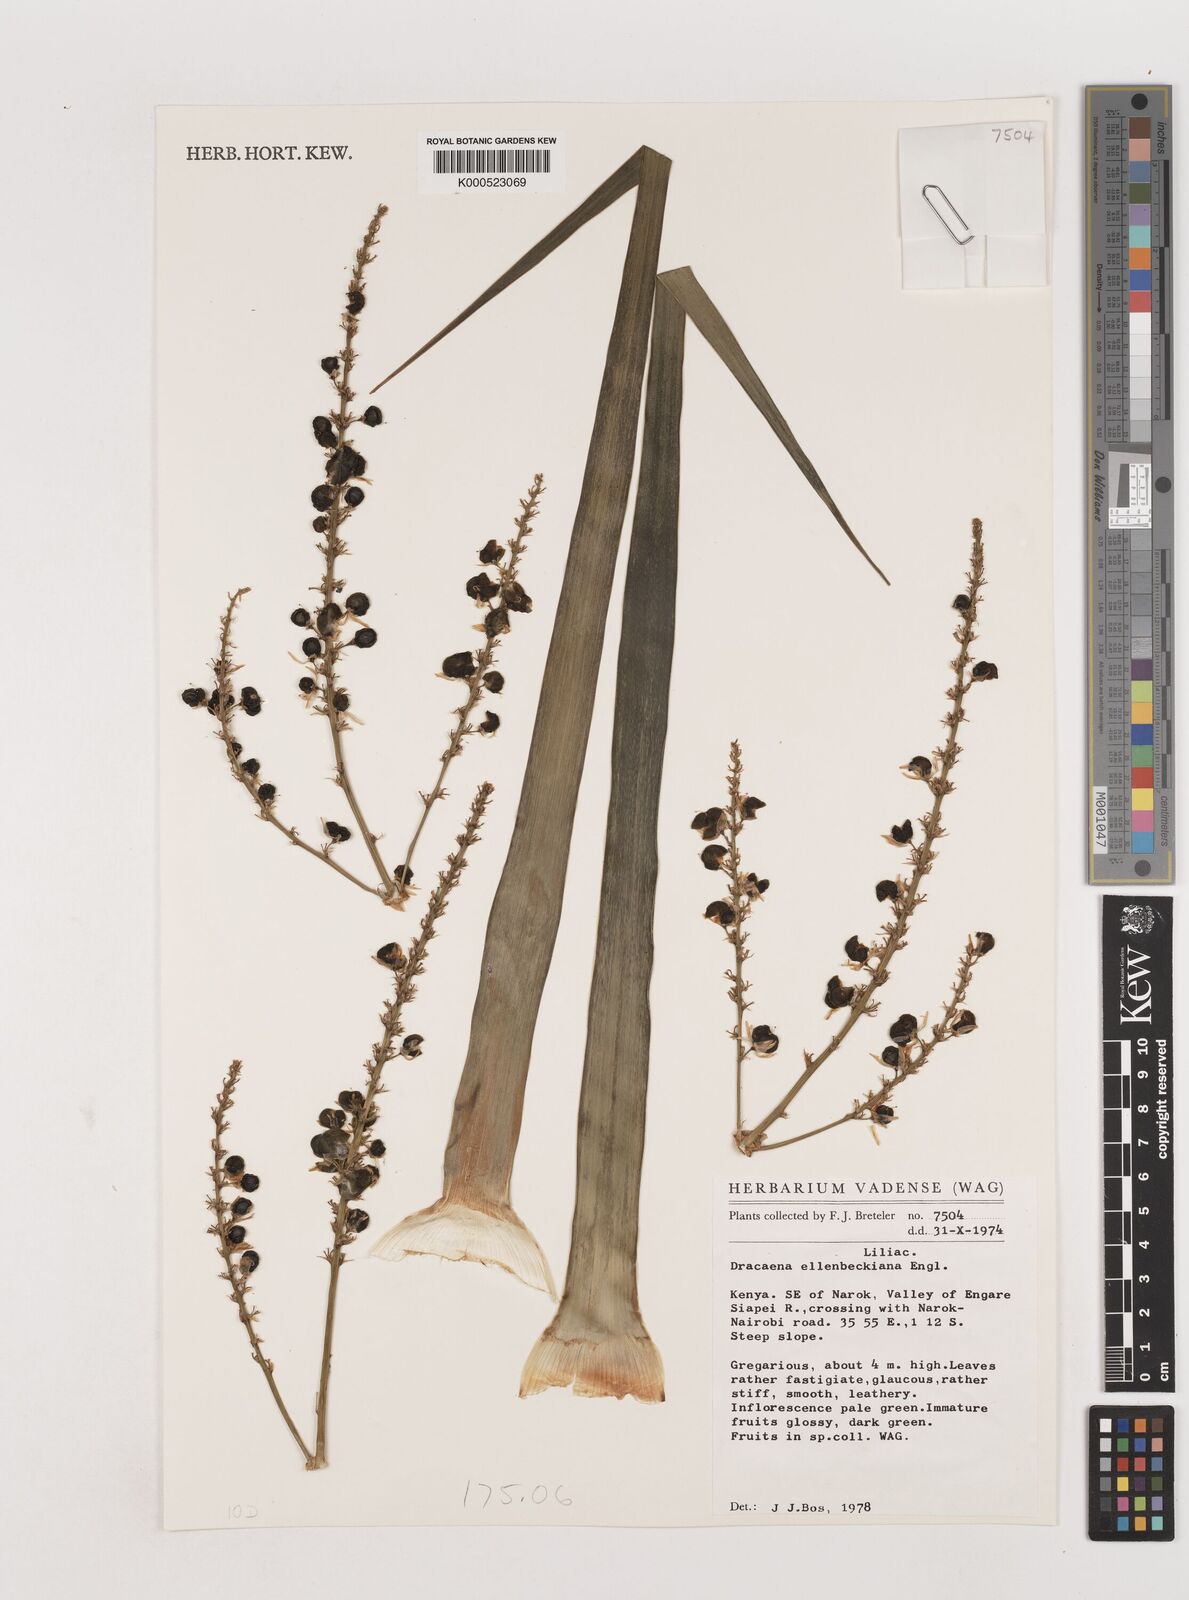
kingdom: Plantae
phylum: Tracheophyta
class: Liliopsida
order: Asparagales
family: Asparagaceae
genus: Dracaena
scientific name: Dracaena ellenbeckiana
